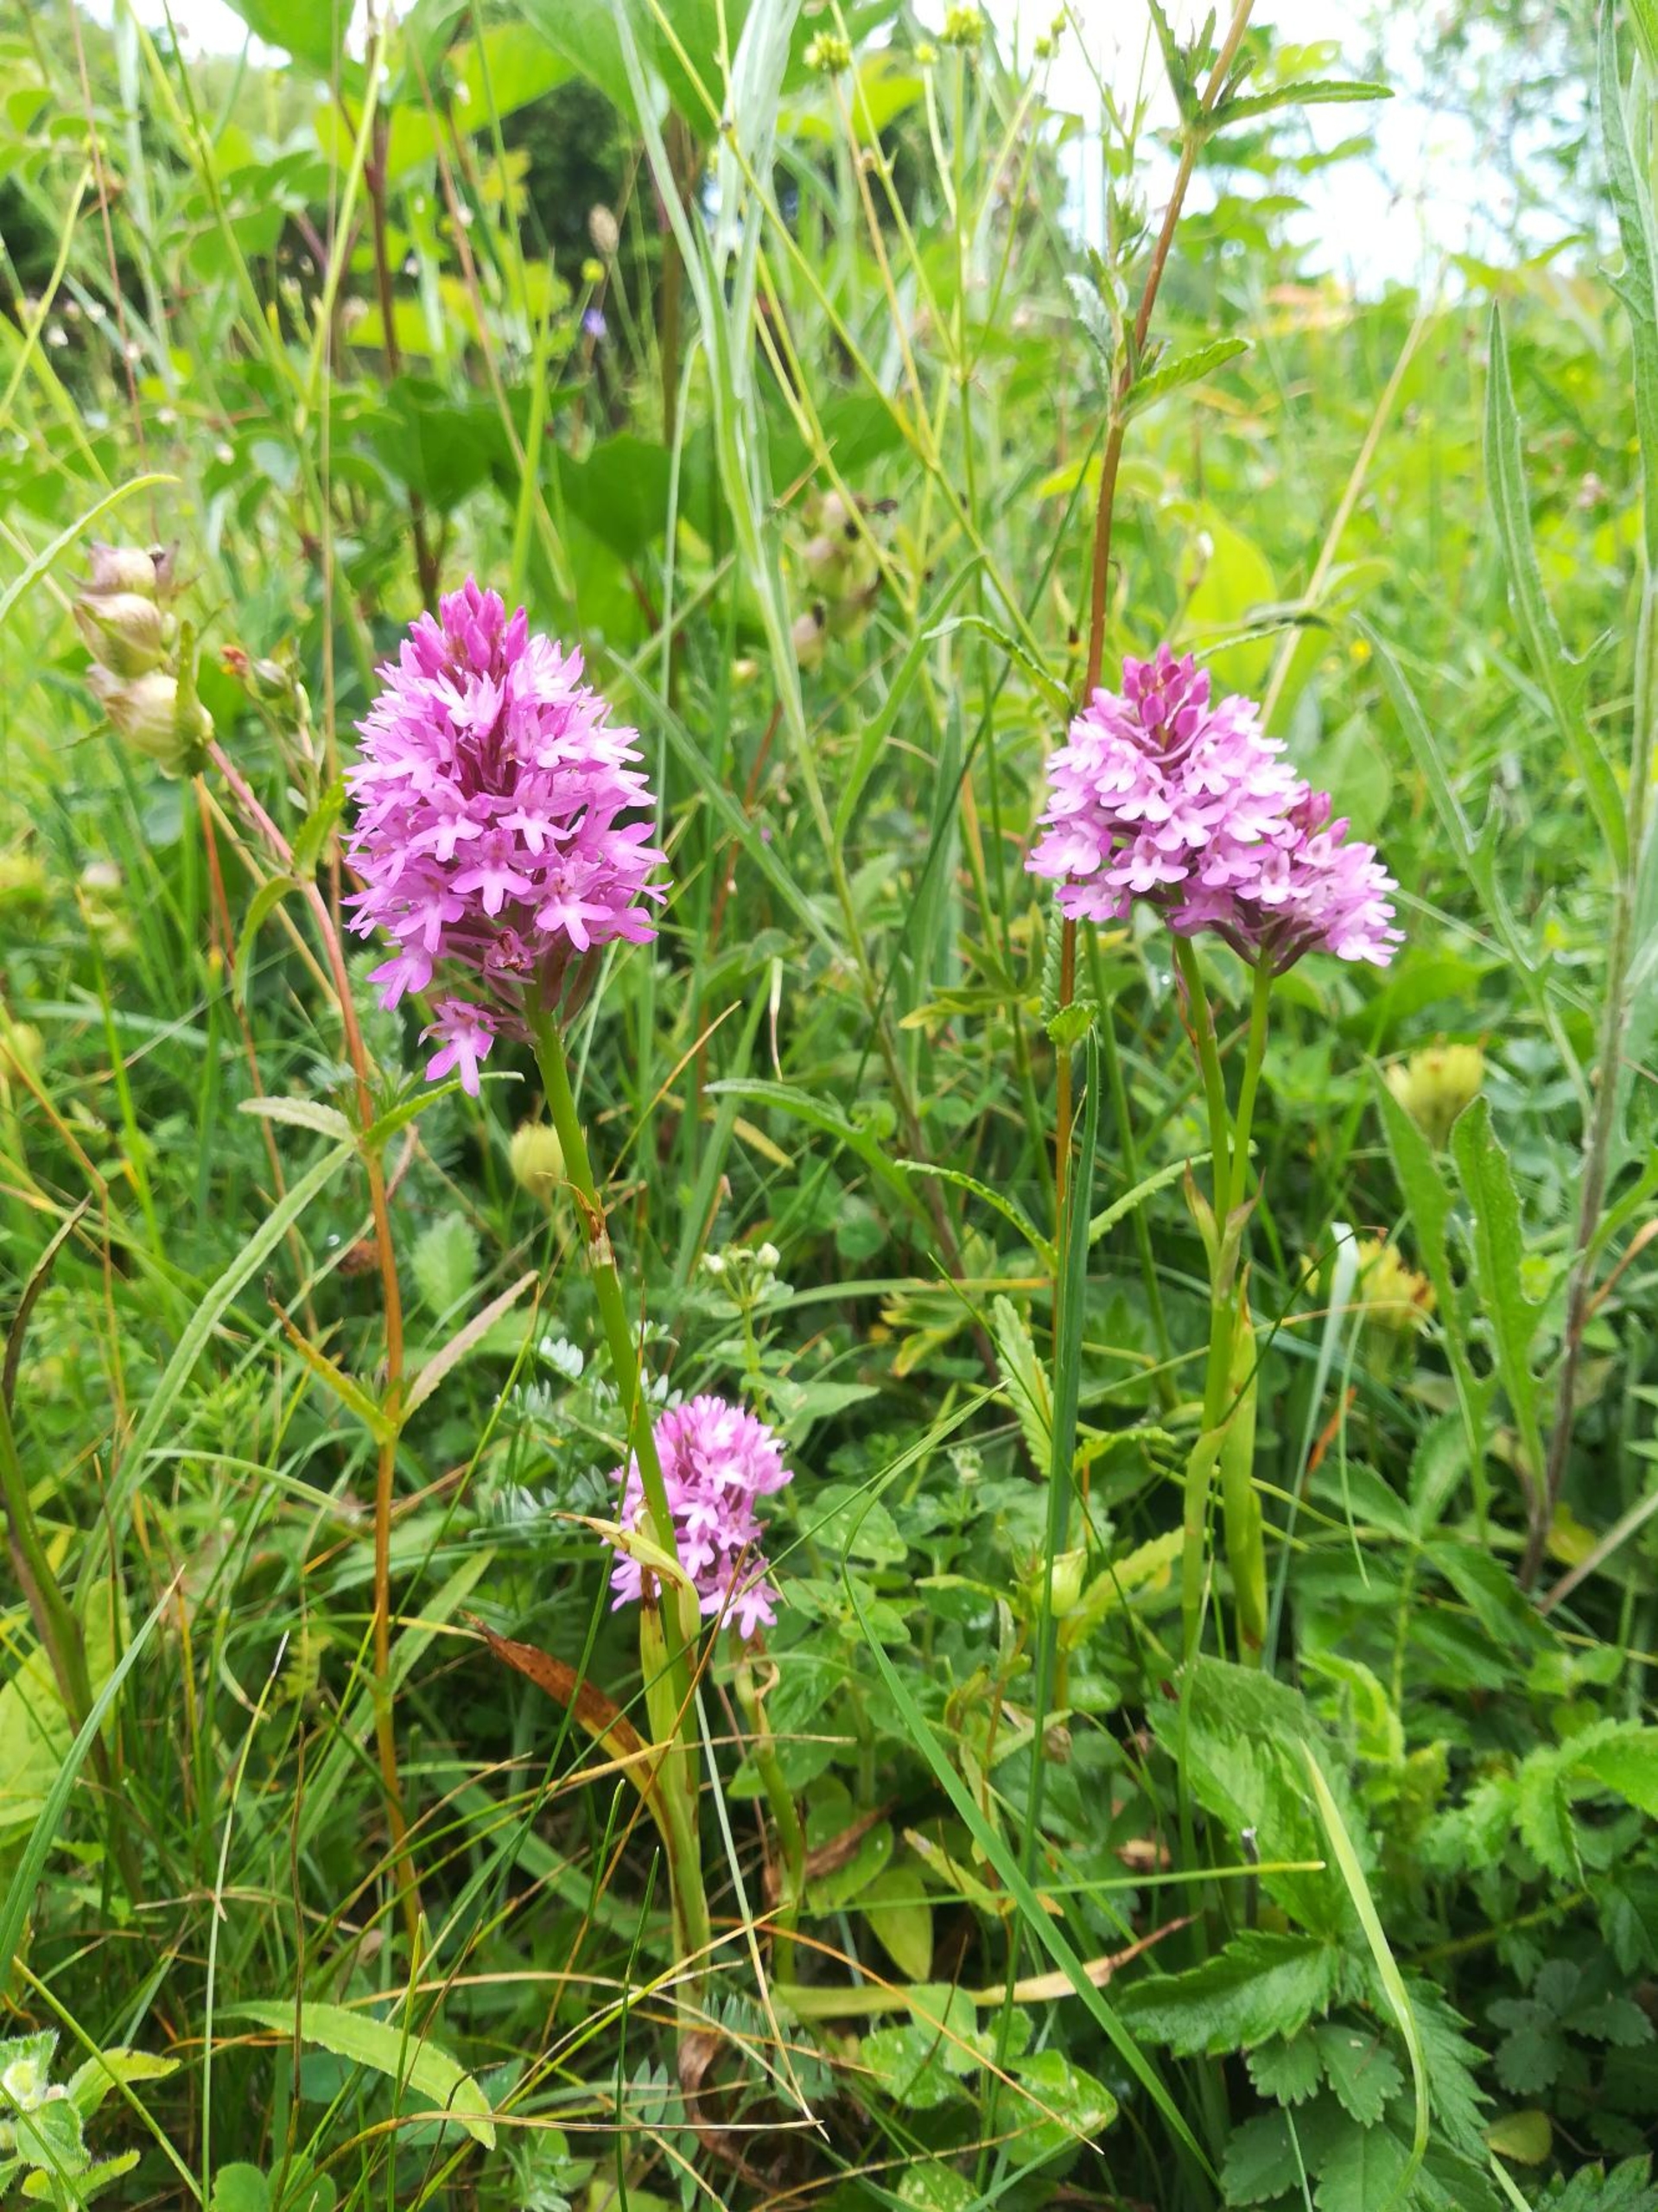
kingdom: Plantae
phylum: Tracheophyta
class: Liliopsida
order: Asparagales
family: Orchidaceae
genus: Anacamptis
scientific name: Anacamptis pyramidalis
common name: Horndrager
